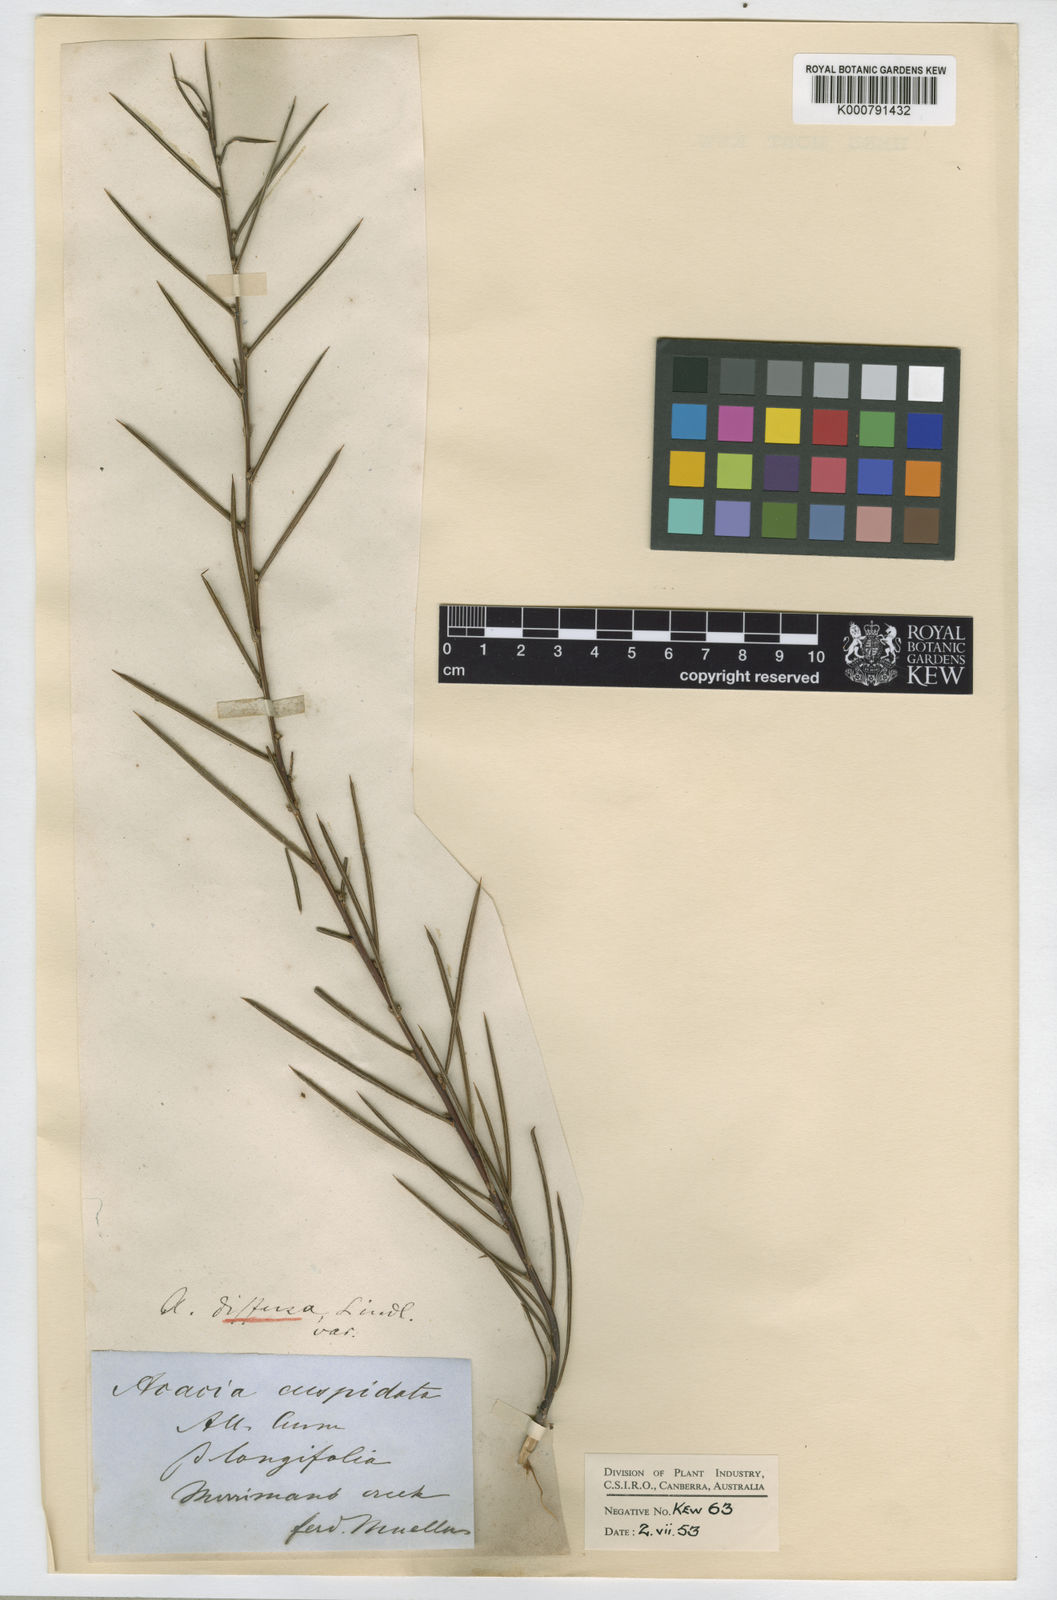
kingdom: Plantae
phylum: Tracheophyta
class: Magnoliopsida
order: Fabales
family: Fabaceae
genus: Acacia
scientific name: Acacia
